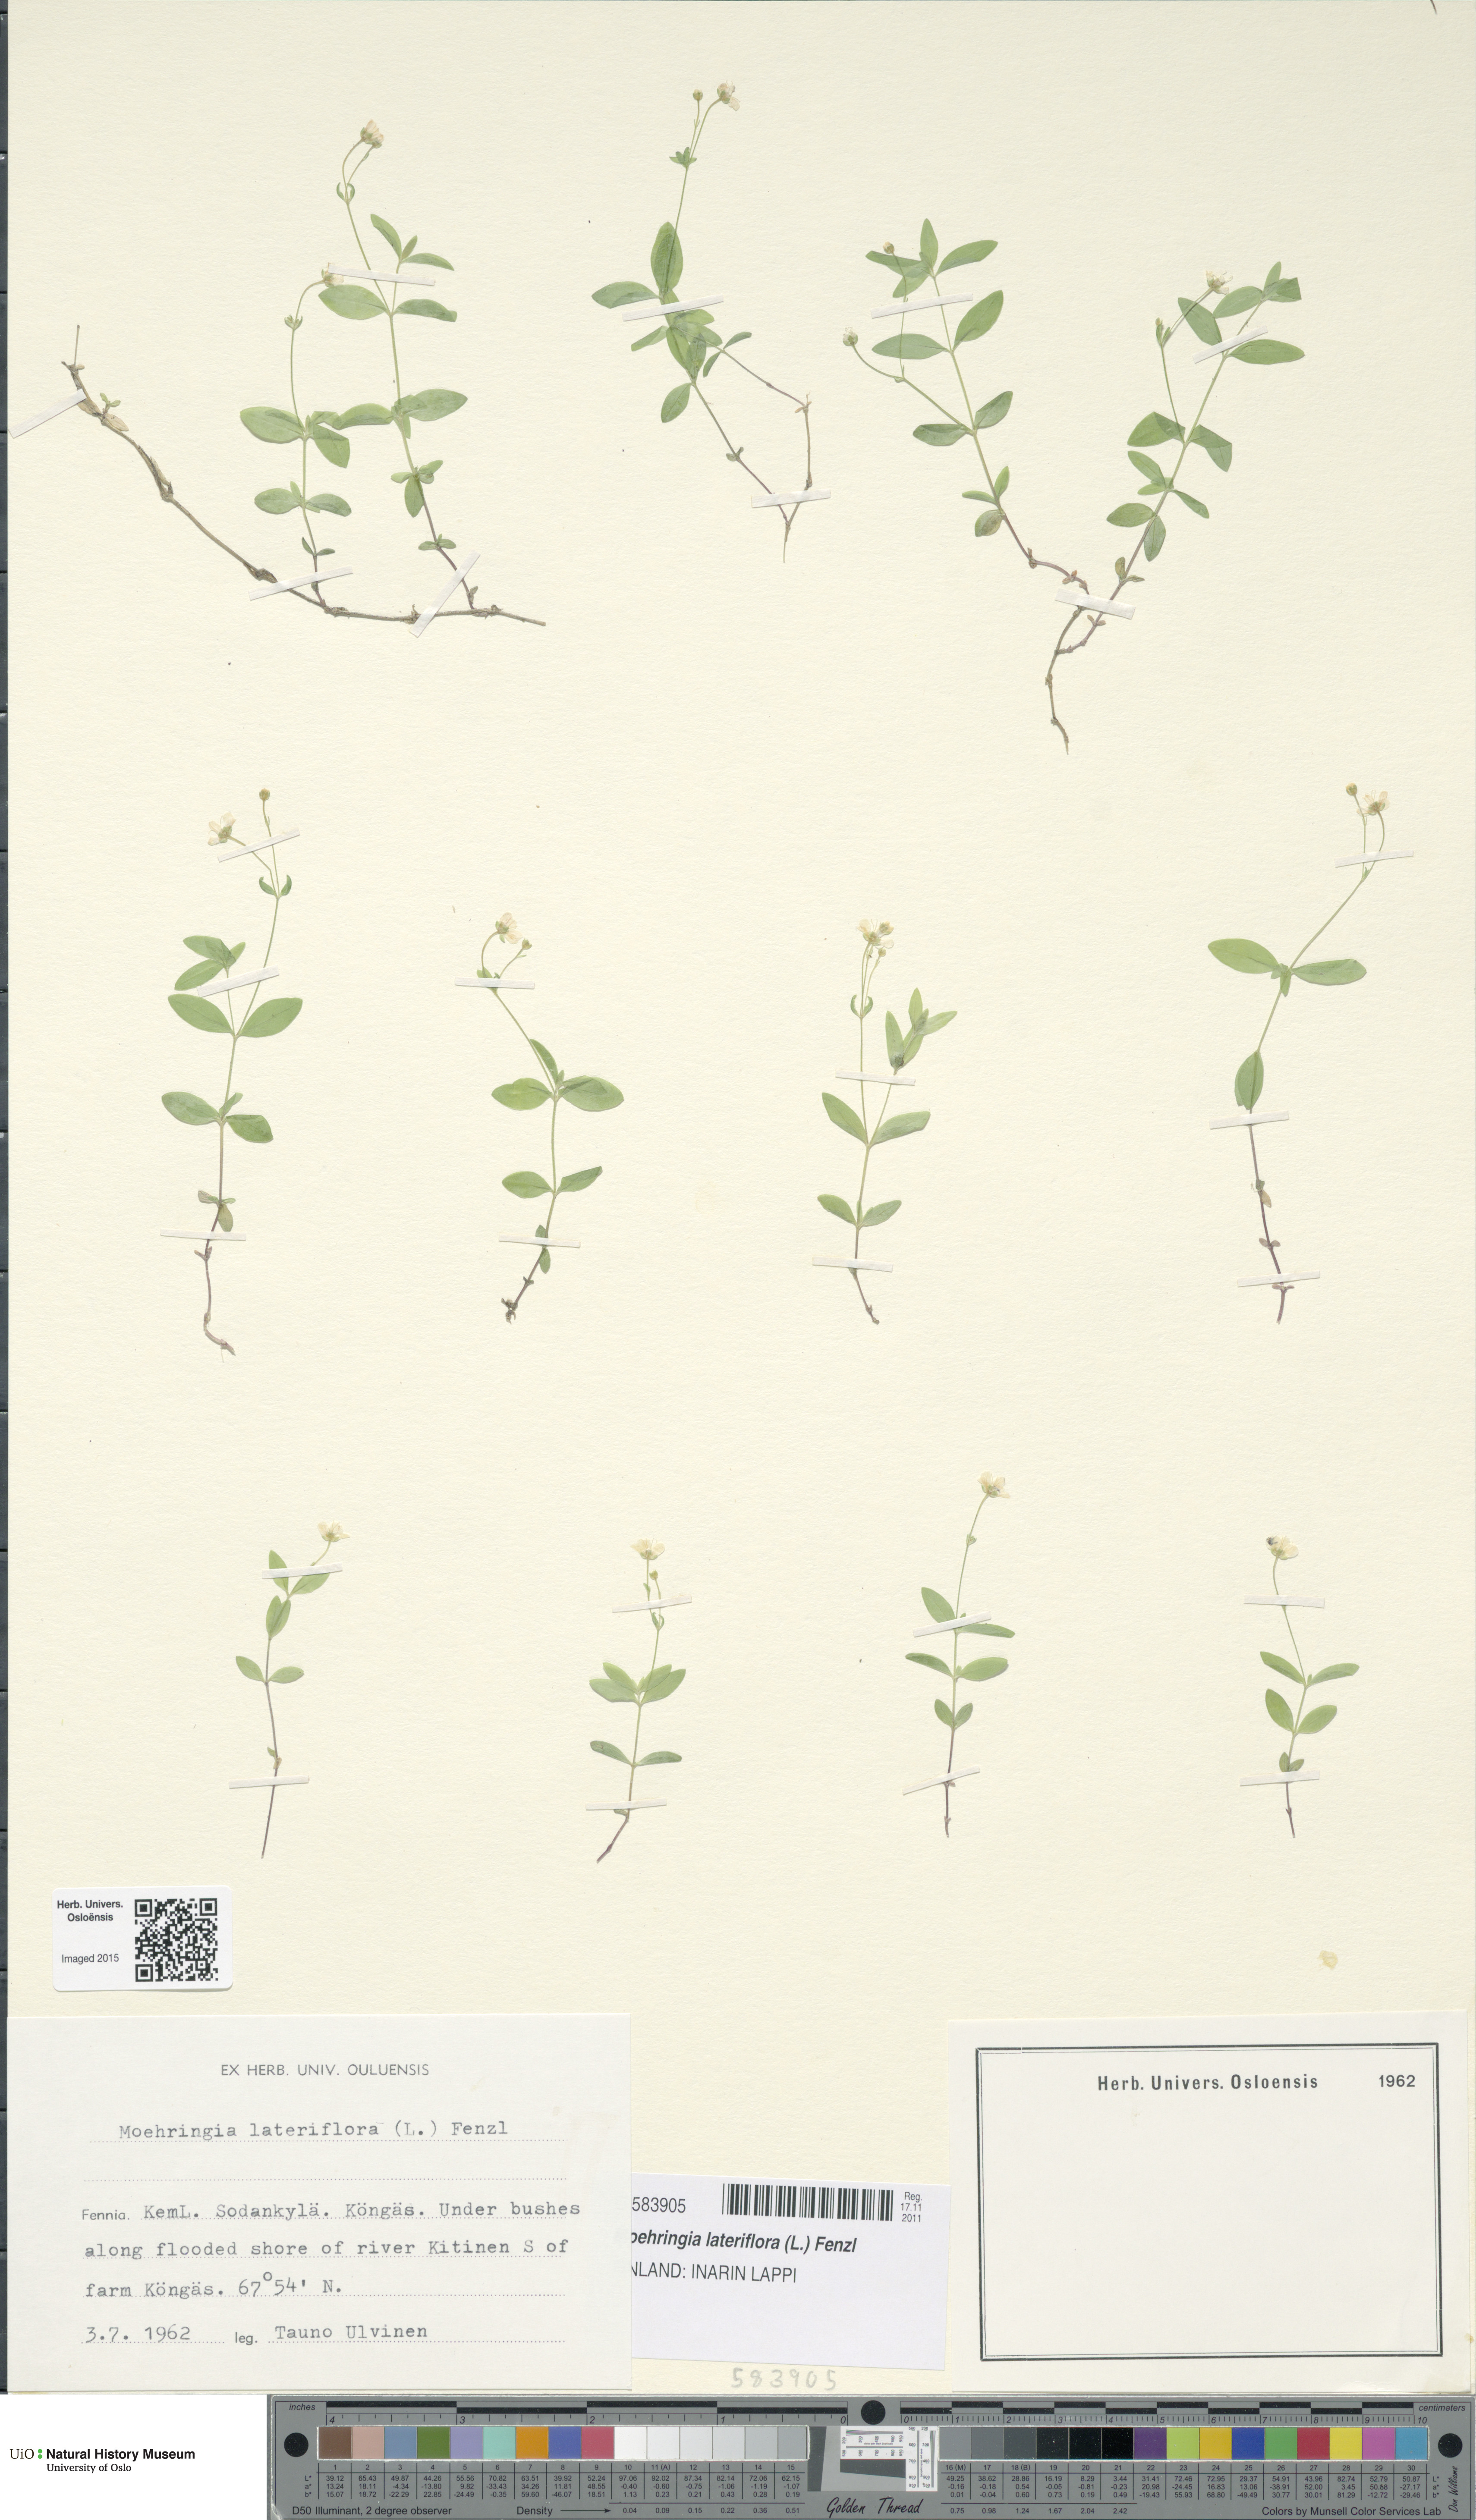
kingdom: Plantae
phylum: Tracheophyta
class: Magnoliopsida
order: Caryophyllales
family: Caryophyllaceae
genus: Moehringia
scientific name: Moehringia lateriflora
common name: Blunt-leaved sandwort
